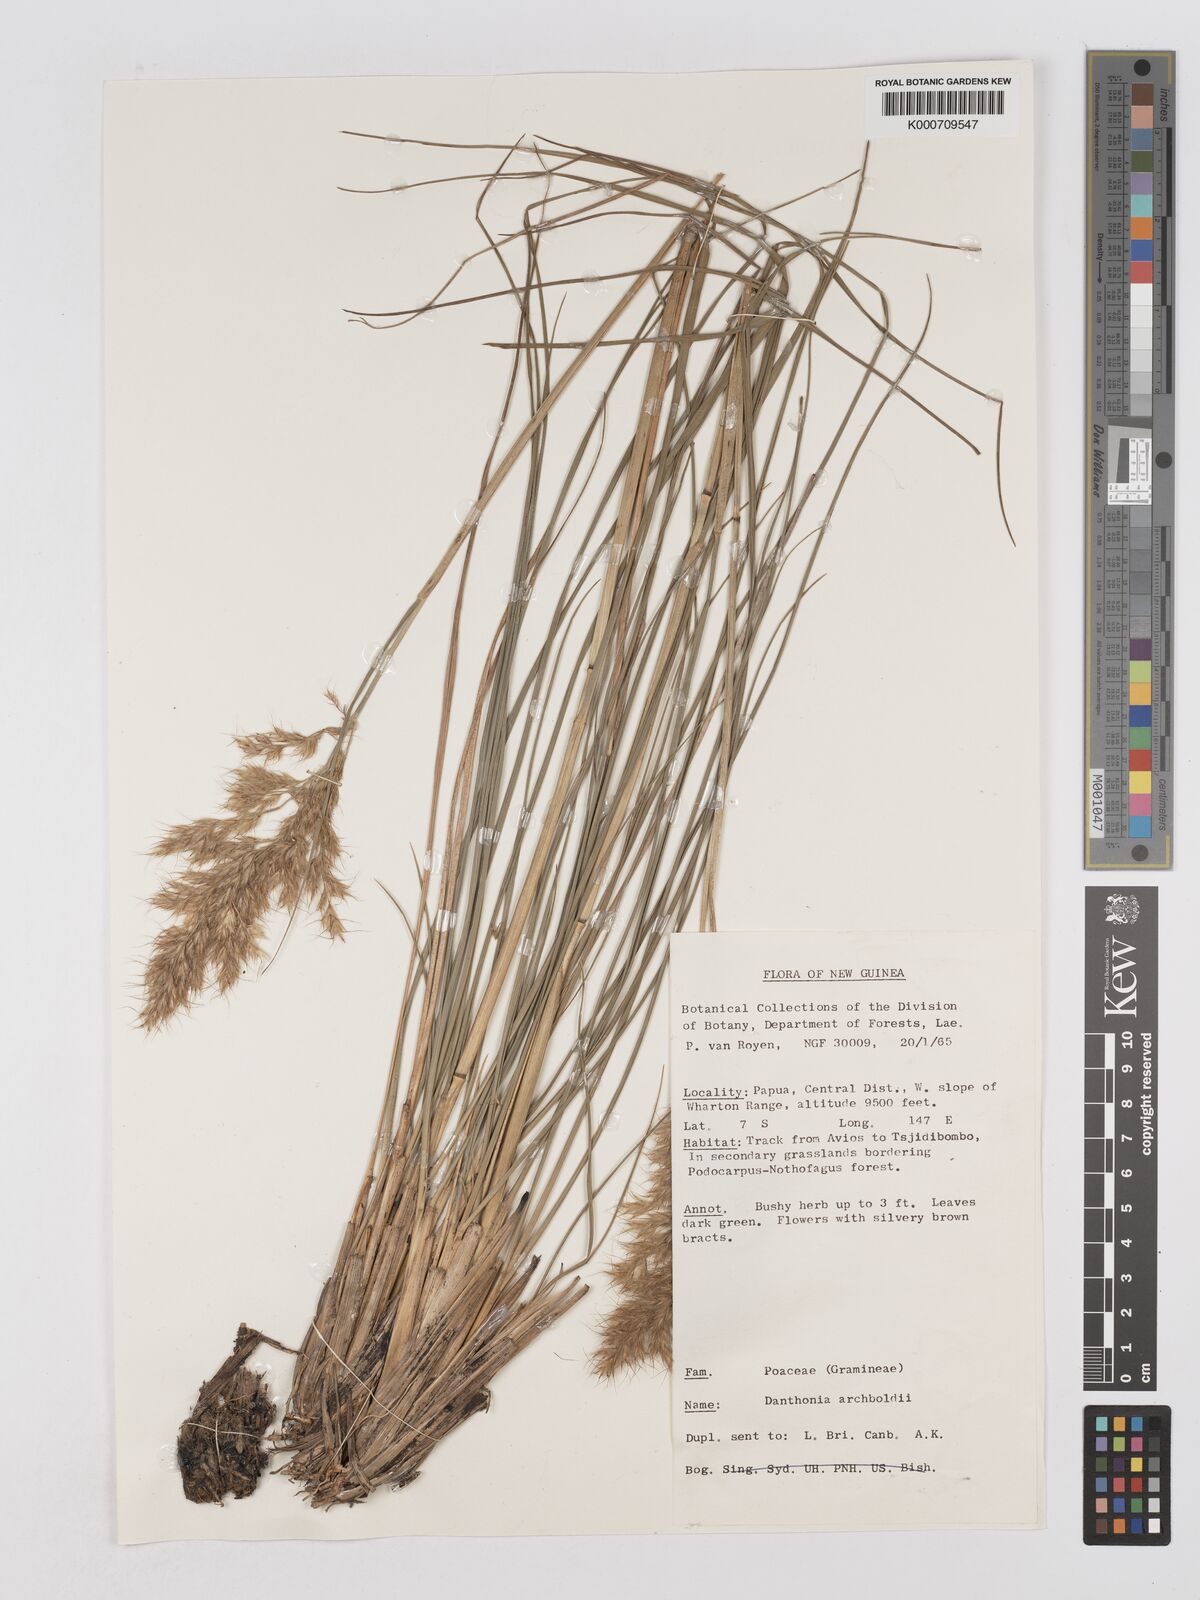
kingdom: Plantae
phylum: Tracheophyta
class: Liliopsida
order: Poales
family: Poaceae
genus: Chimaerochloa
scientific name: Chimaerochloa archboldii
